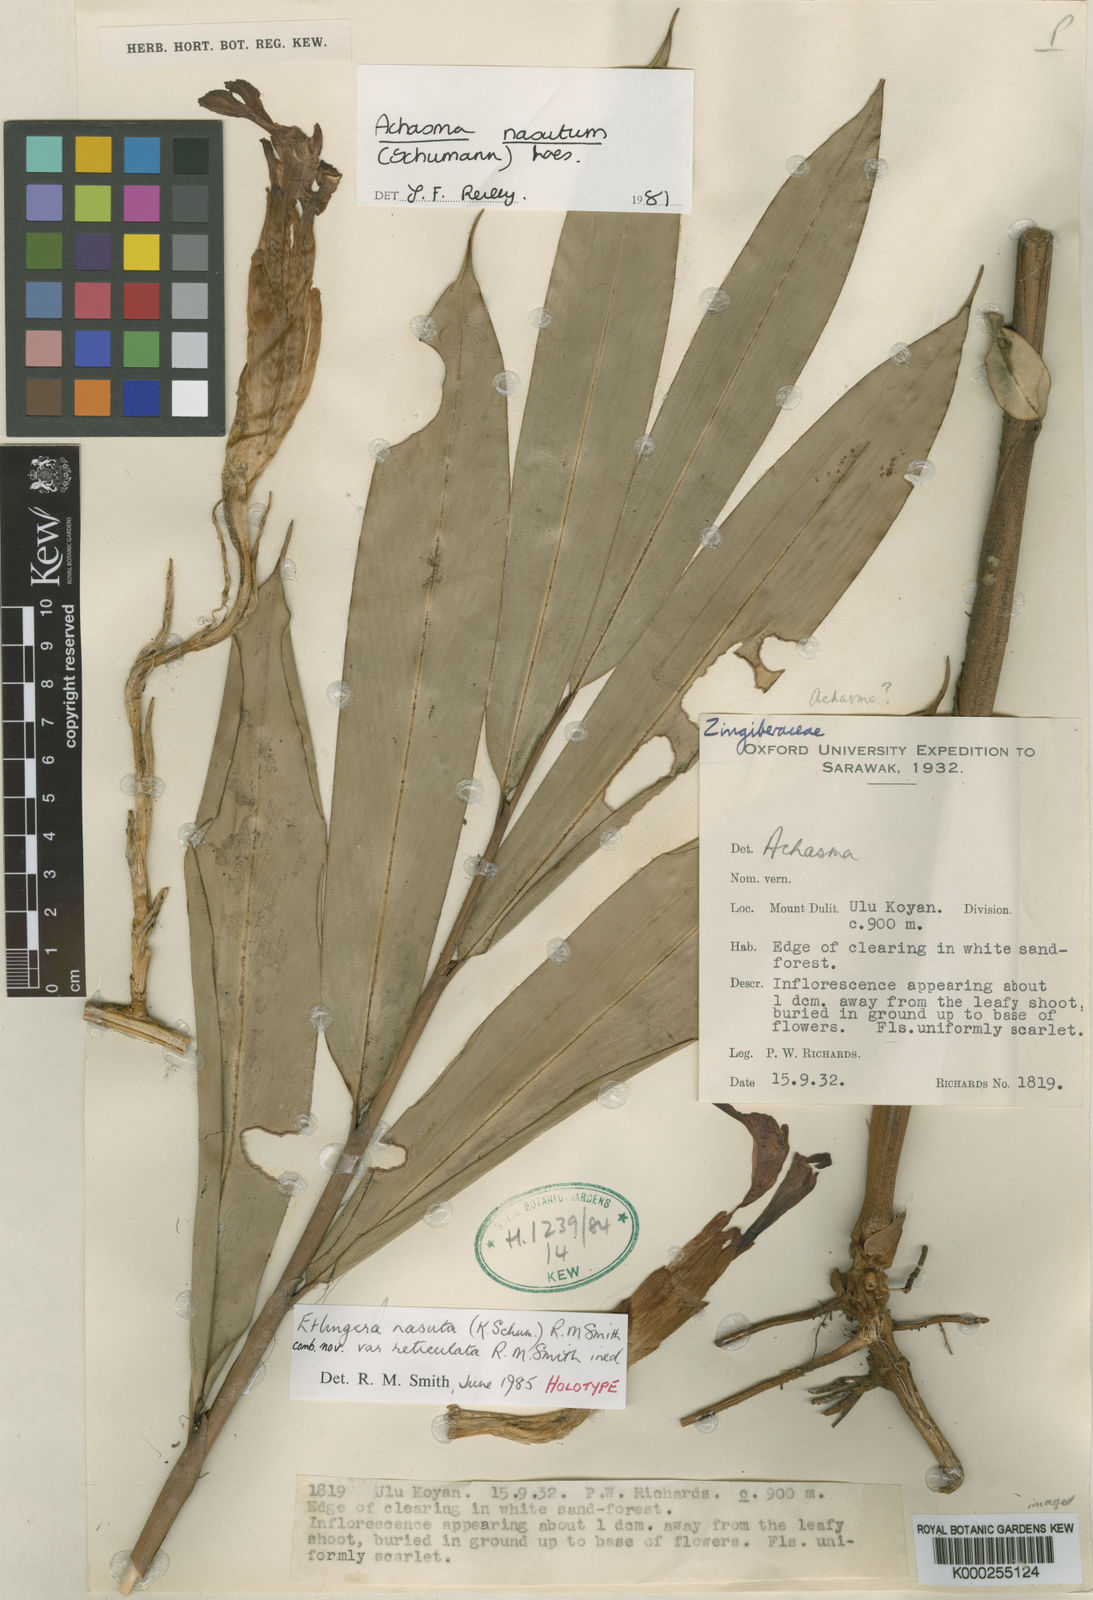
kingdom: Plantae
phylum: Tracheophyta
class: Liliopsida
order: Zingiberales
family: Zingiberaceae
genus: Etlingera
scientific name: Etlingera nasuta
